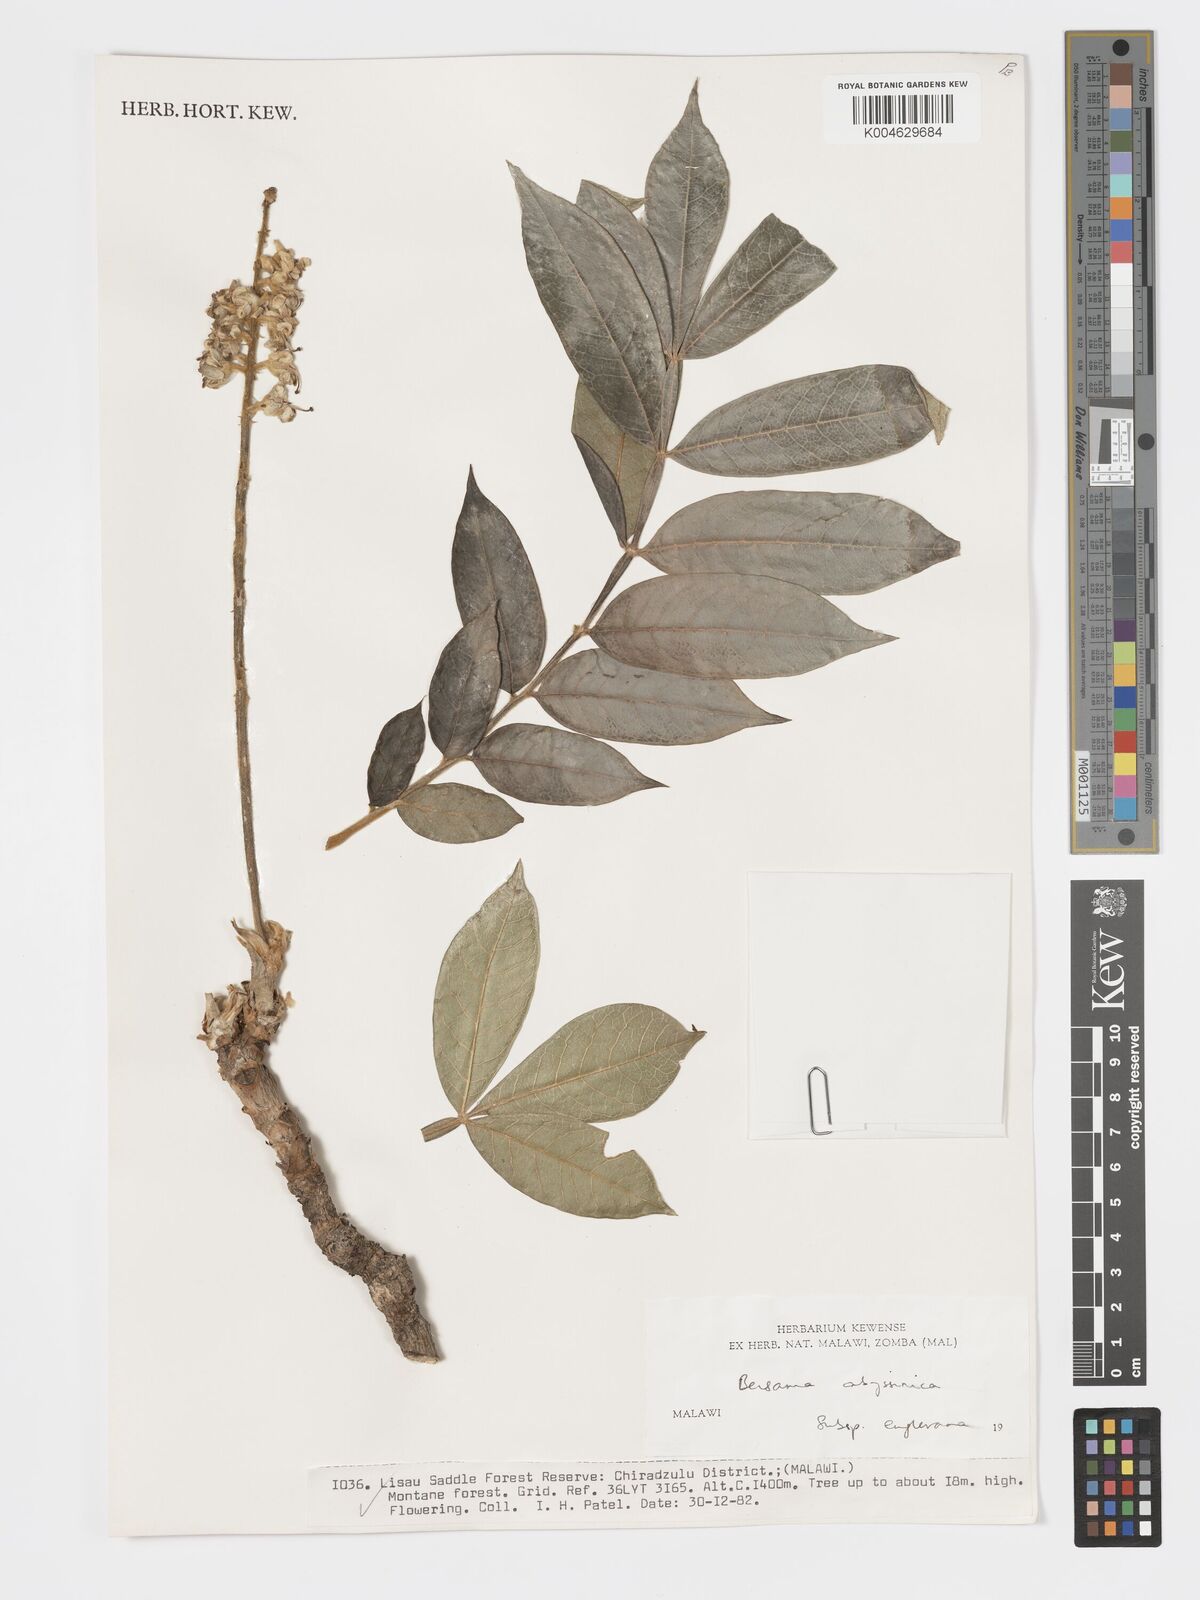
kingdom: Plantae
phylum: Tracheophyta
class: Magnoliopsida
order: Geraniales
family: Melianthaceae
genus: Bersama
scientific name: Bersama abyssinica
